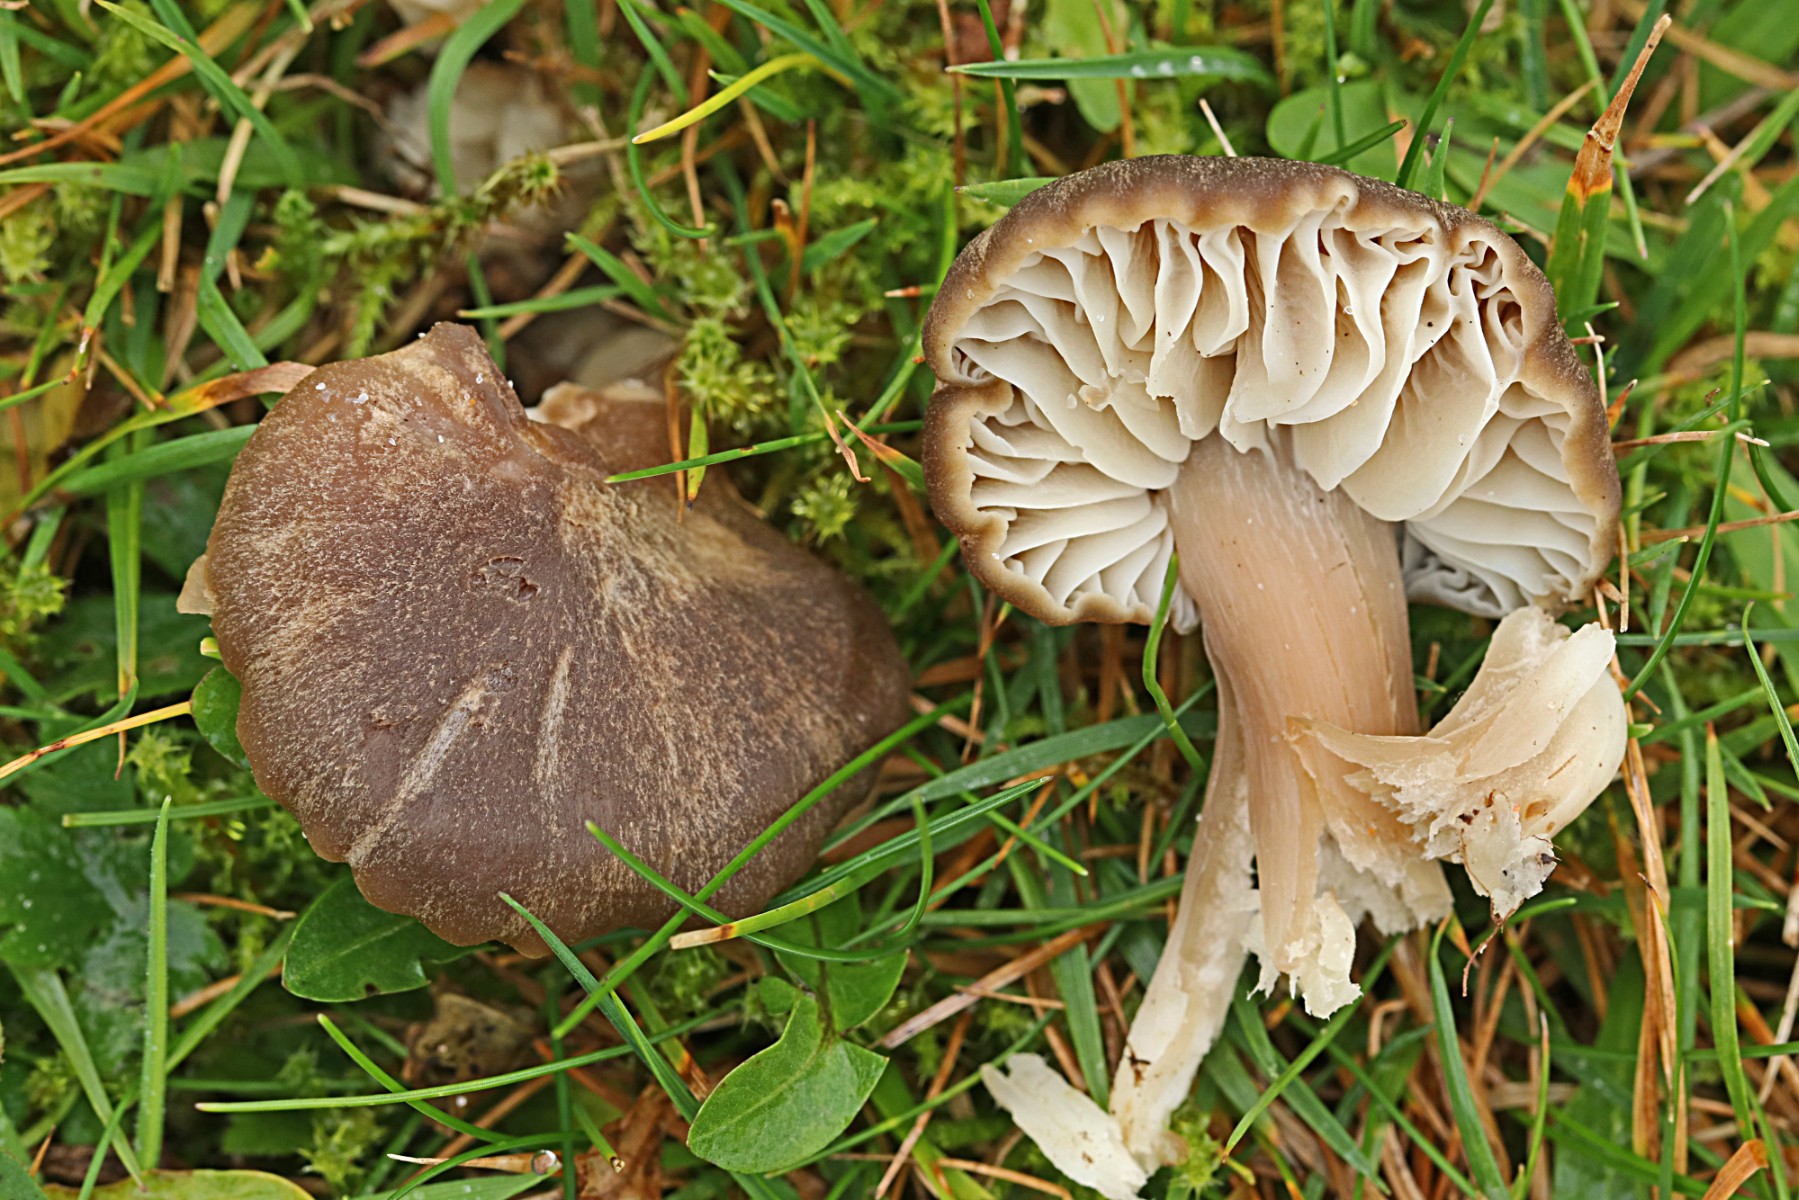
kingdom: Fungi
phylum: Basidiomycota
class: Agaricomycetes
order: Agaricales
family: Hygrophoraceae
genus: Neohygrocybe
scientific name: Neohygrocybe nitrata
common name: stinkende vokshat
